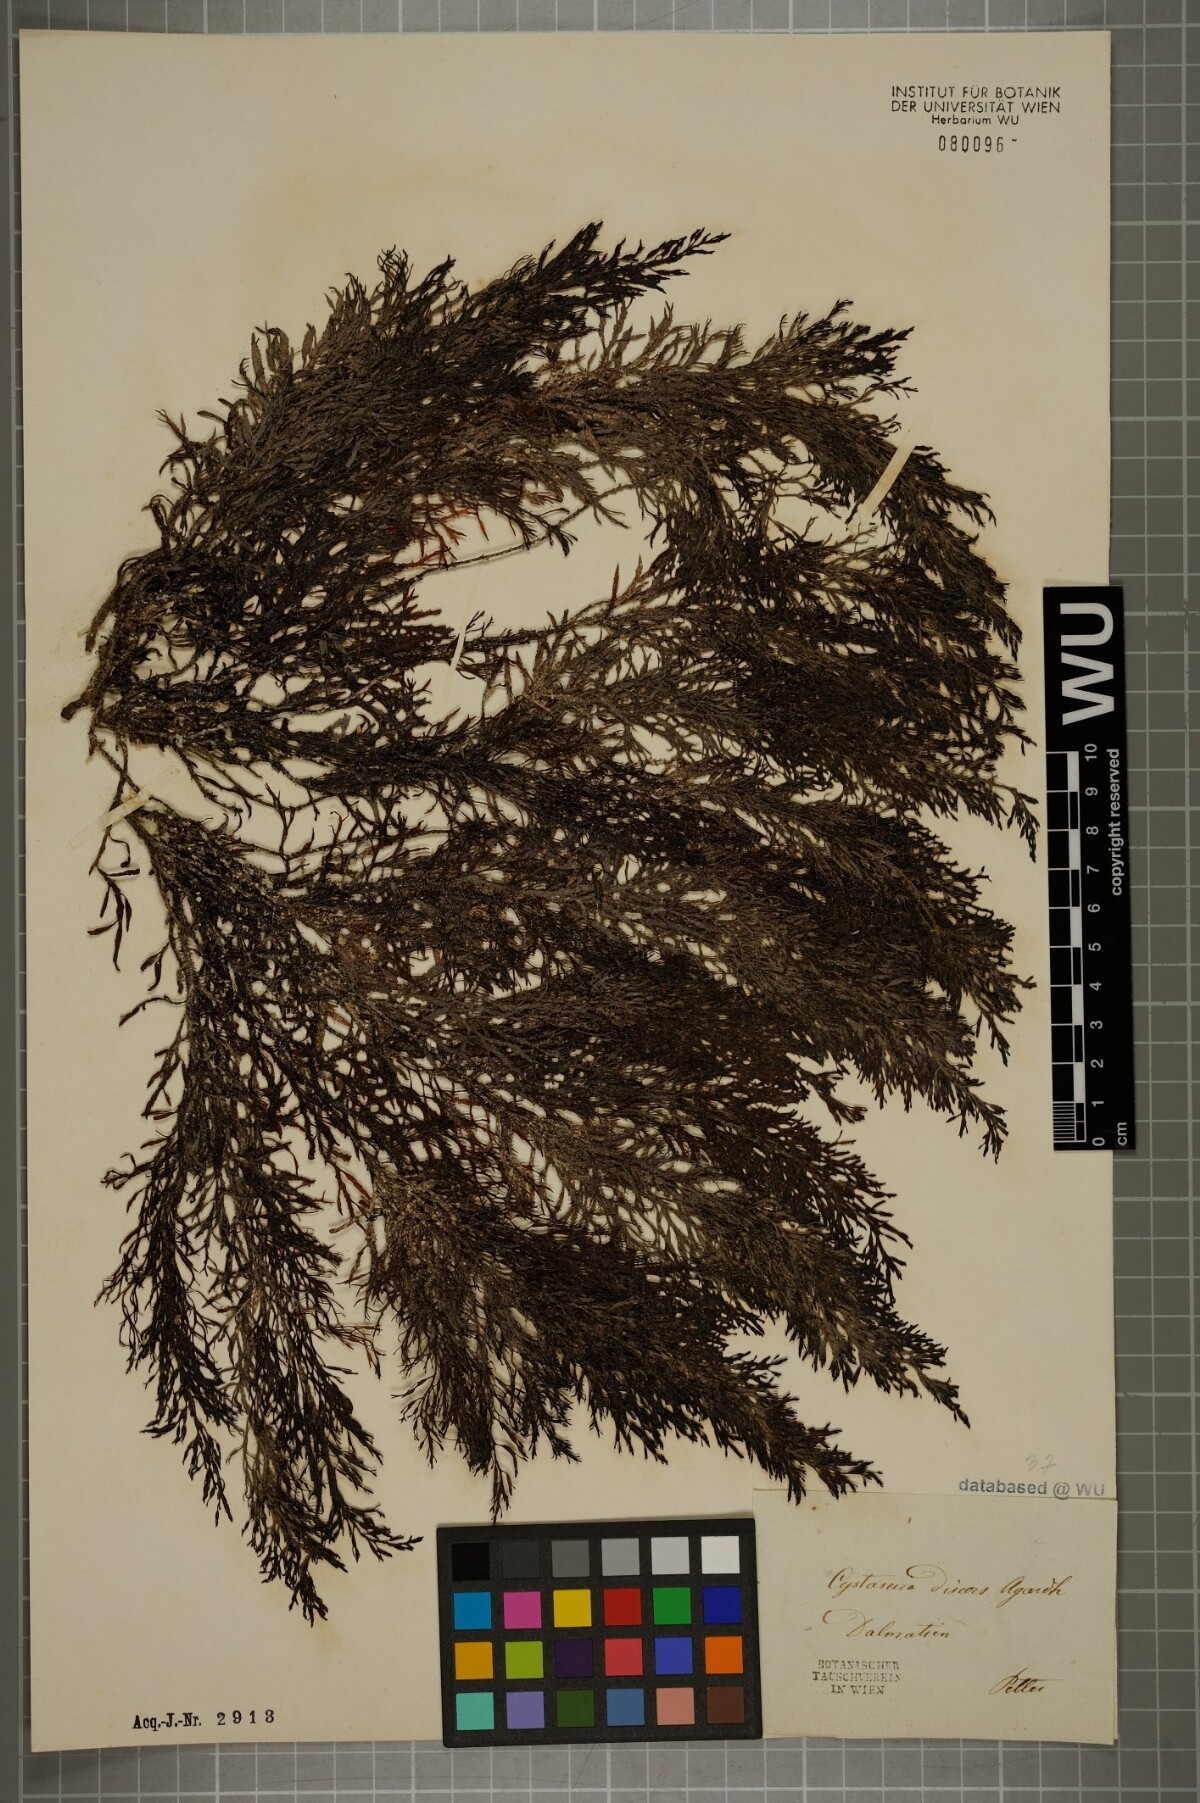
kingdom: Chromista
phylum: Ochrophyta
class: Phaeophyceae
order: Fucales
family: Sargassaceae
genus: Cystoseira
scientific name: Cystoseira foeniculacea
